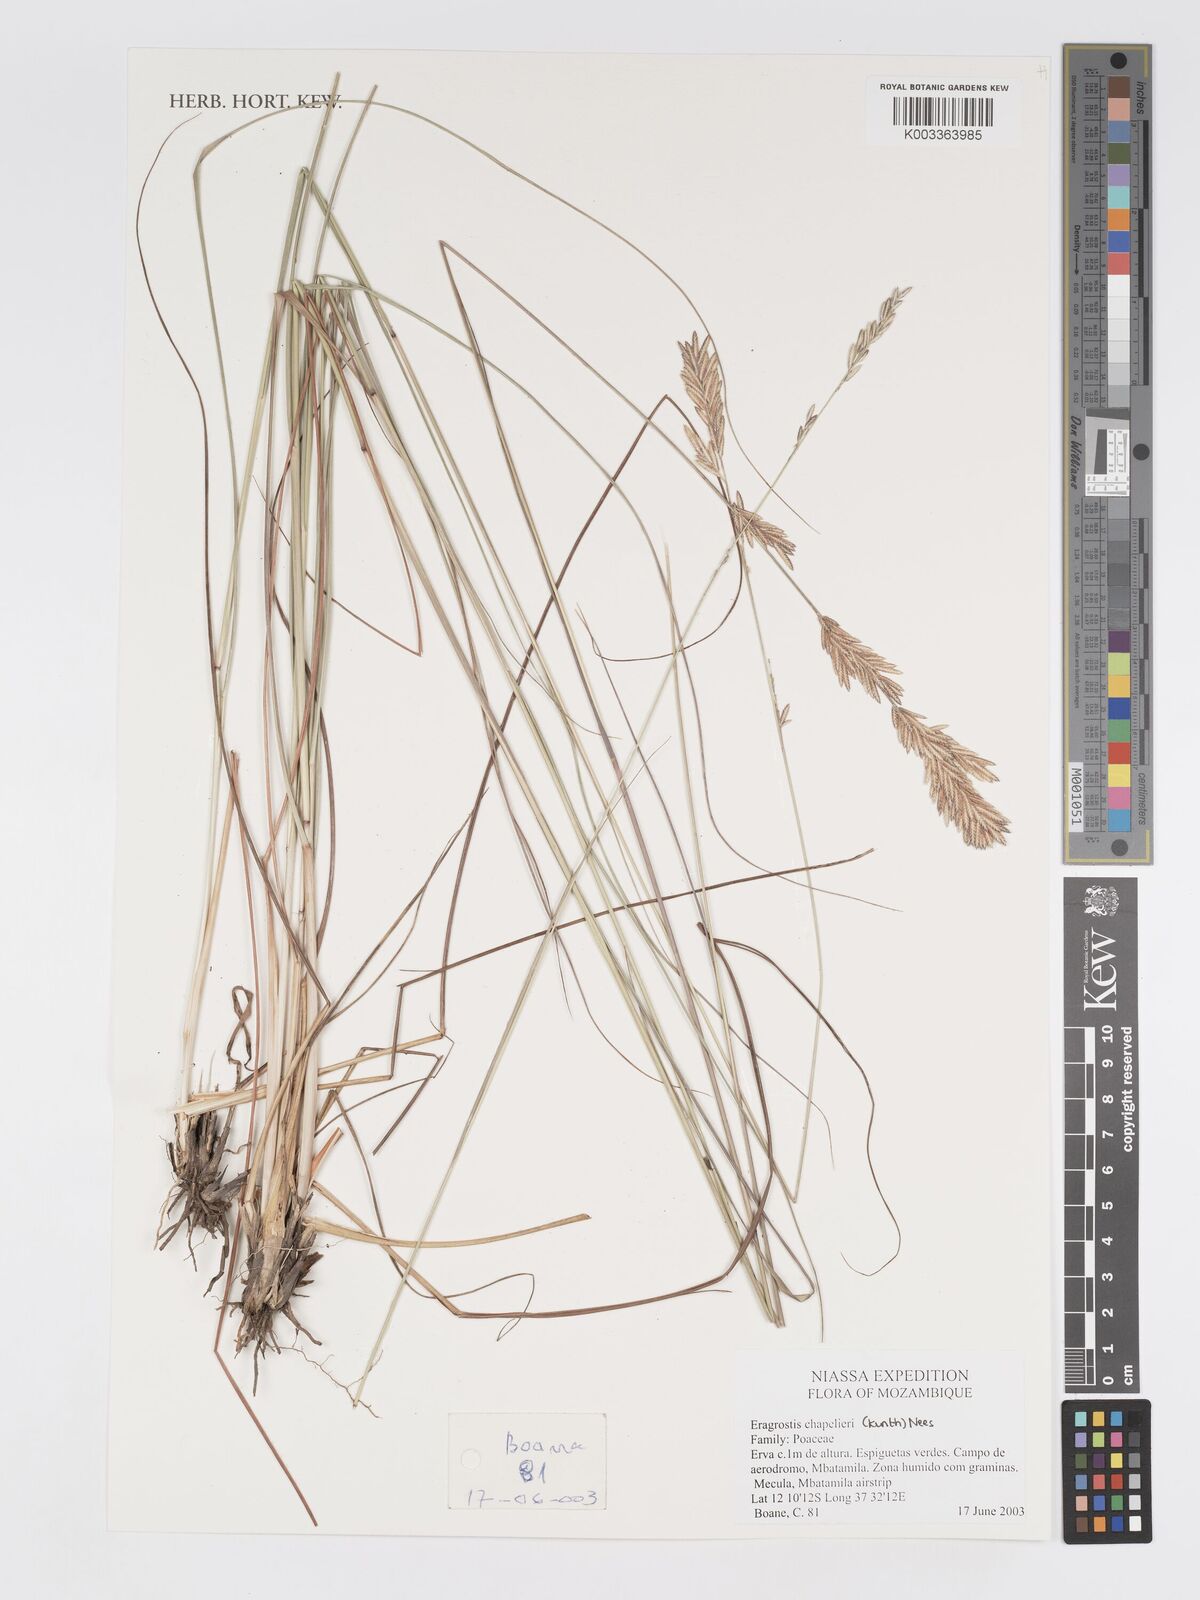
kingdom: Plantae
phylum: Tracheophyta
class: Liliopsida
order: Poales
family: Poaceae
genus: Eragrostis
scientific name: Eragrostis chapelieri
